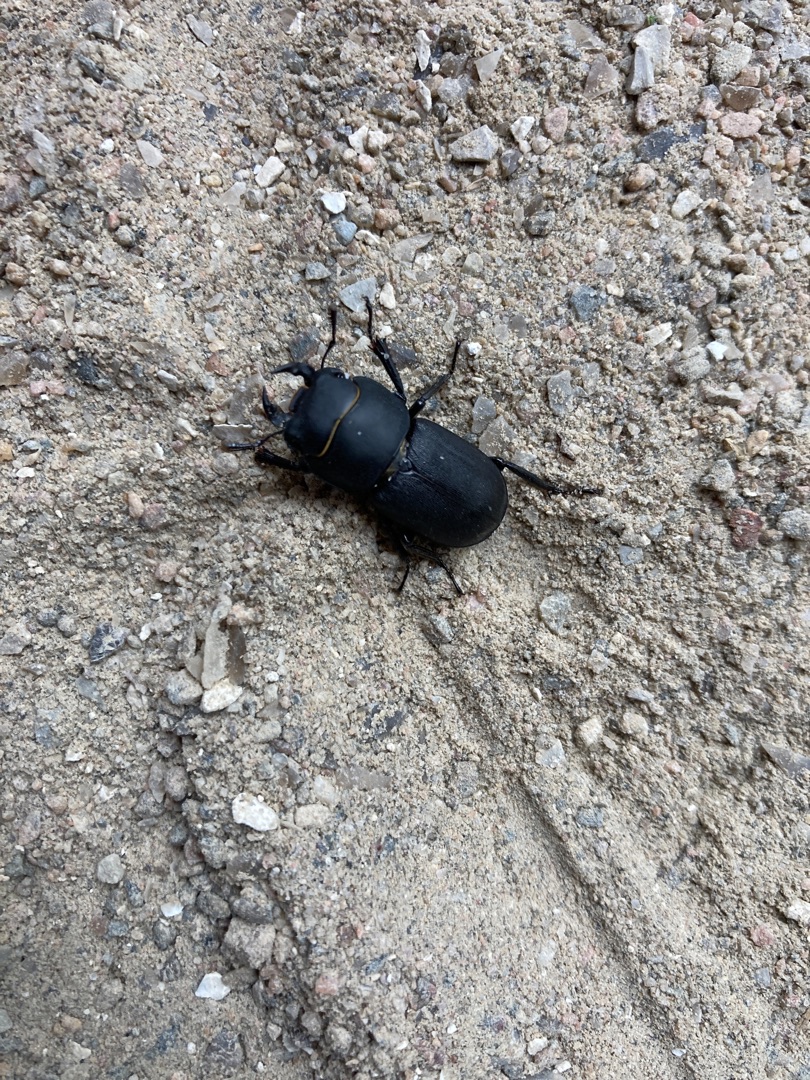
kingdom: Animalia
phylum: Arthropoda
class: Insecta
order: Coleoptera
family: Lucanidae
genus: Dorcus
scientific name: Dorcus parallelipipedus
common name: Bøghjort
